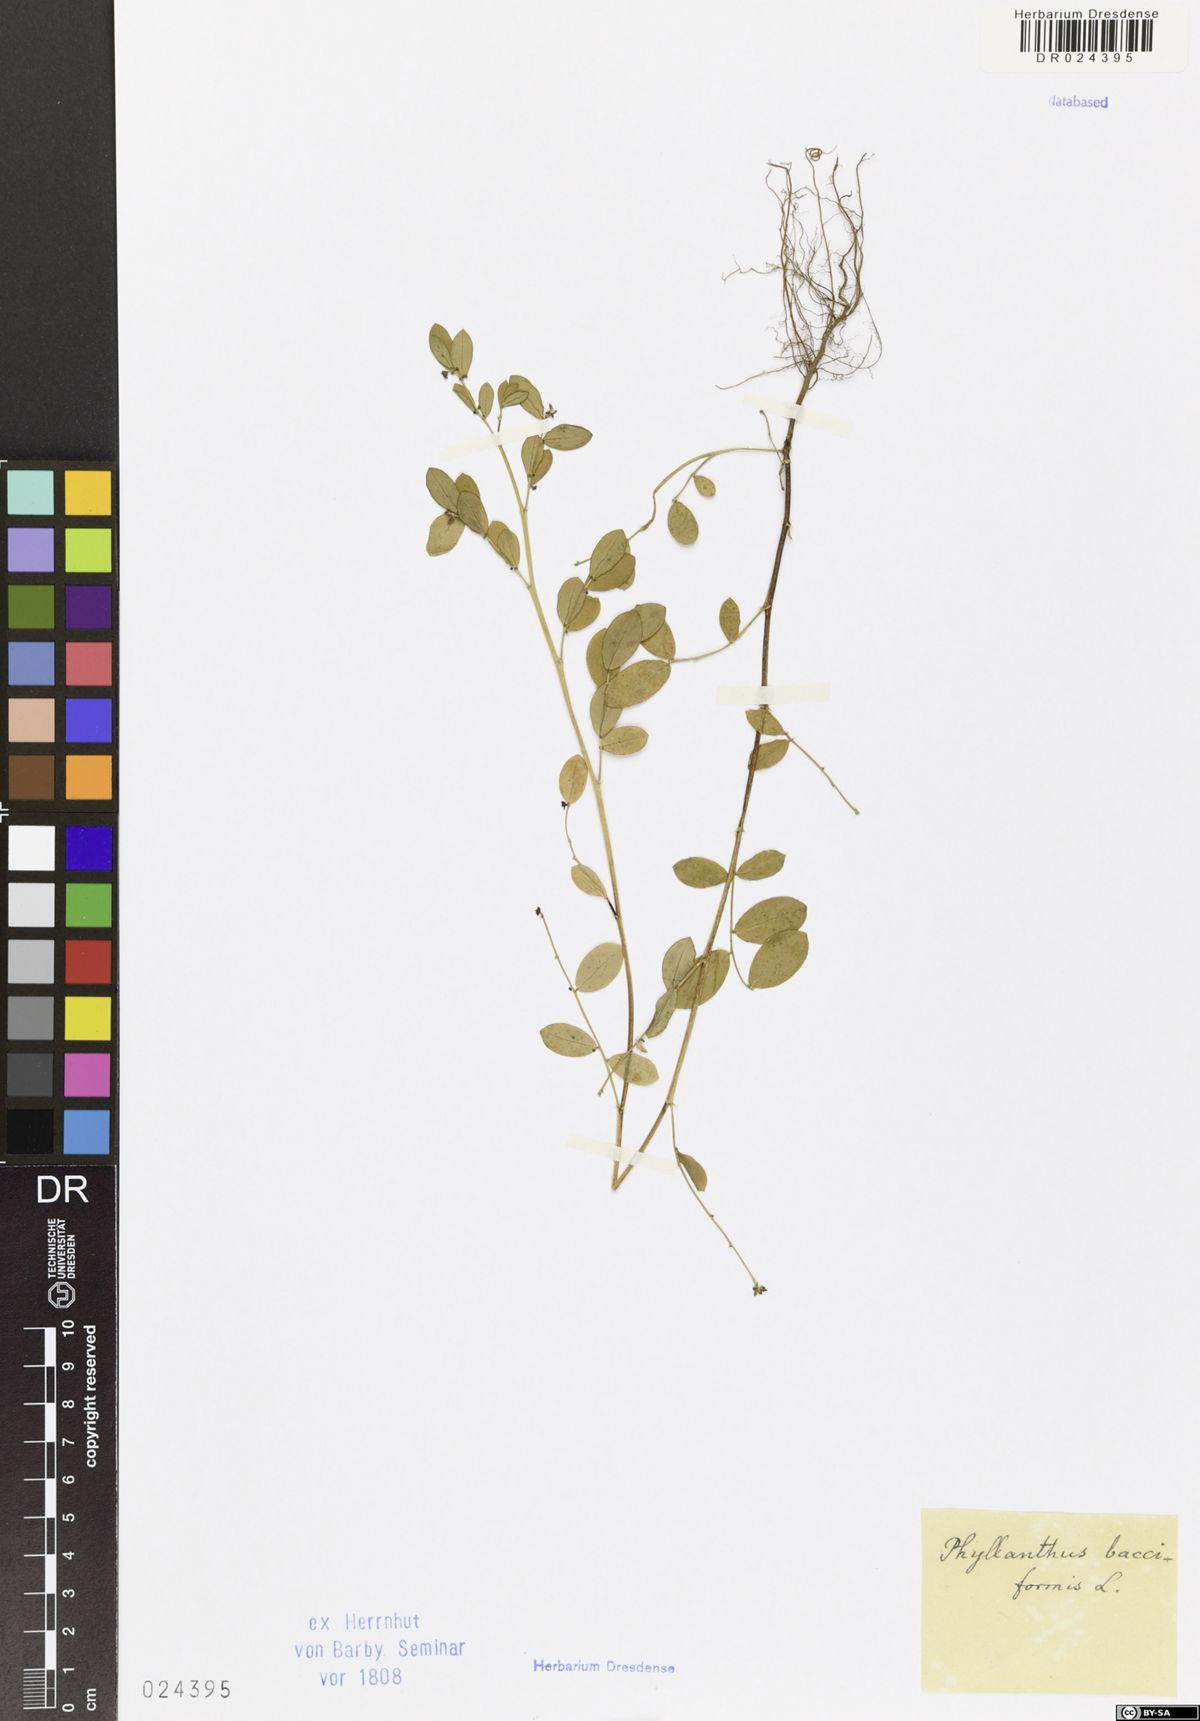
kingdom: Plantae
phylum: Tracheophyta
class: Magnoliopsida
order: Malpighiales
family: Phyllanthaceae
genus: Synostemon
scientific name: Synostemon bacciformis
